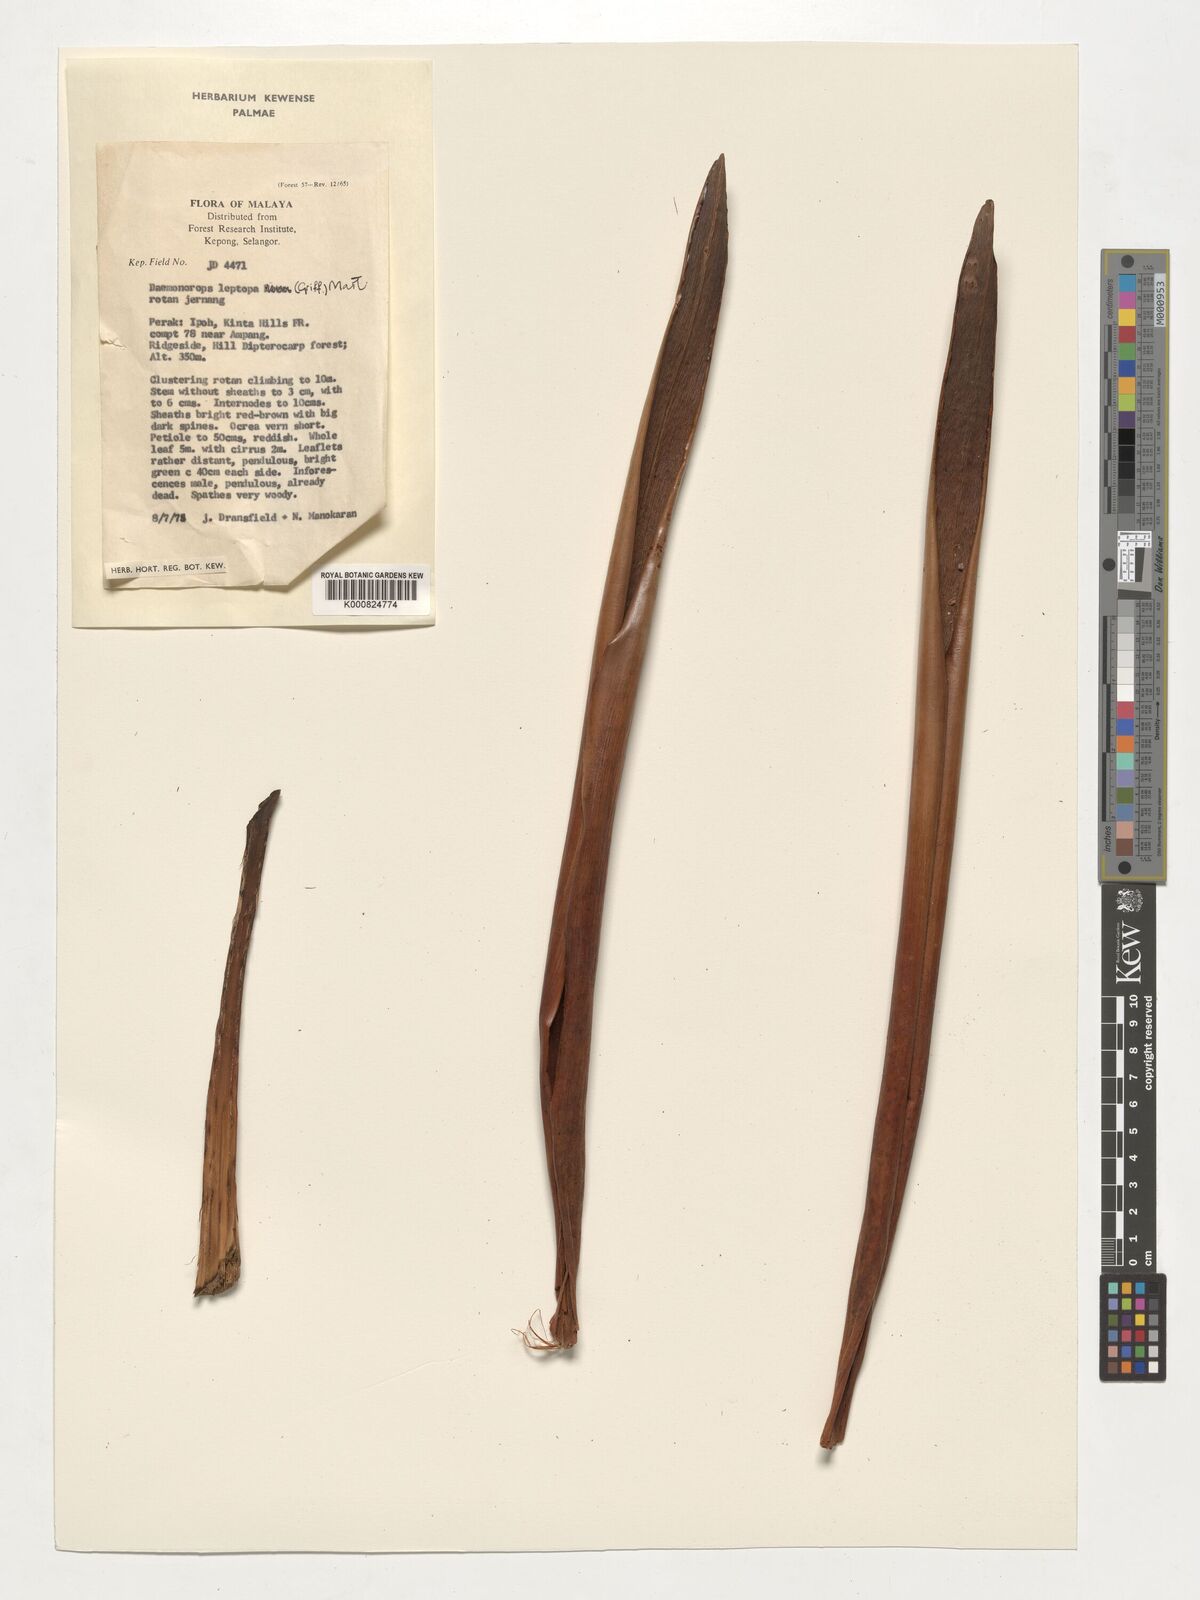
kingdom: Plantae
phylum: Tracheophyta
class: Liliopsida
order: Arecales
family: Arecaceae
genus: Calamus
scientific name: Calamus leptopus
